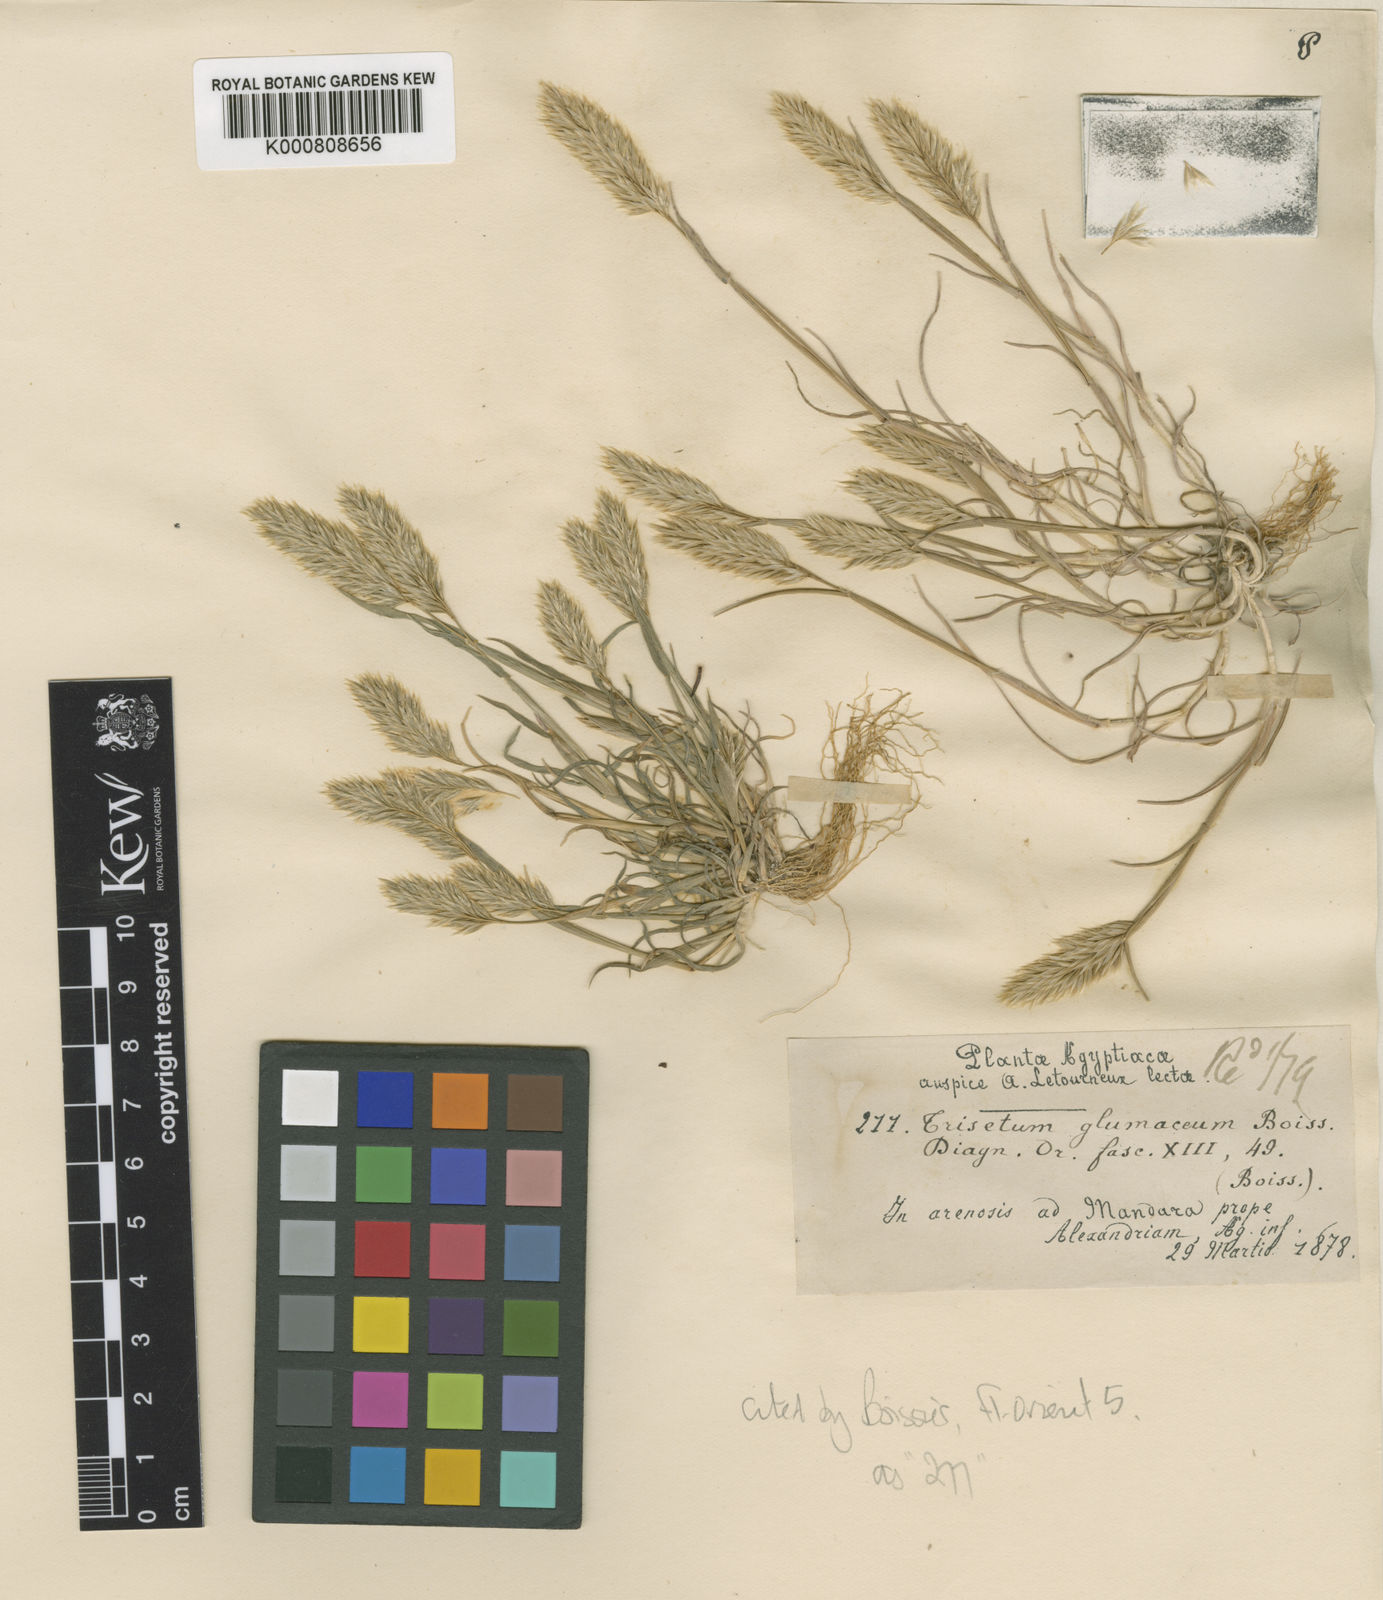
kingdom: Plantae
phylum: Tracheophyta
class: Liliopsida
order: Poales
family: Poaceae
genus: Trisetaria
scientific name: Trisetaria glumacea
